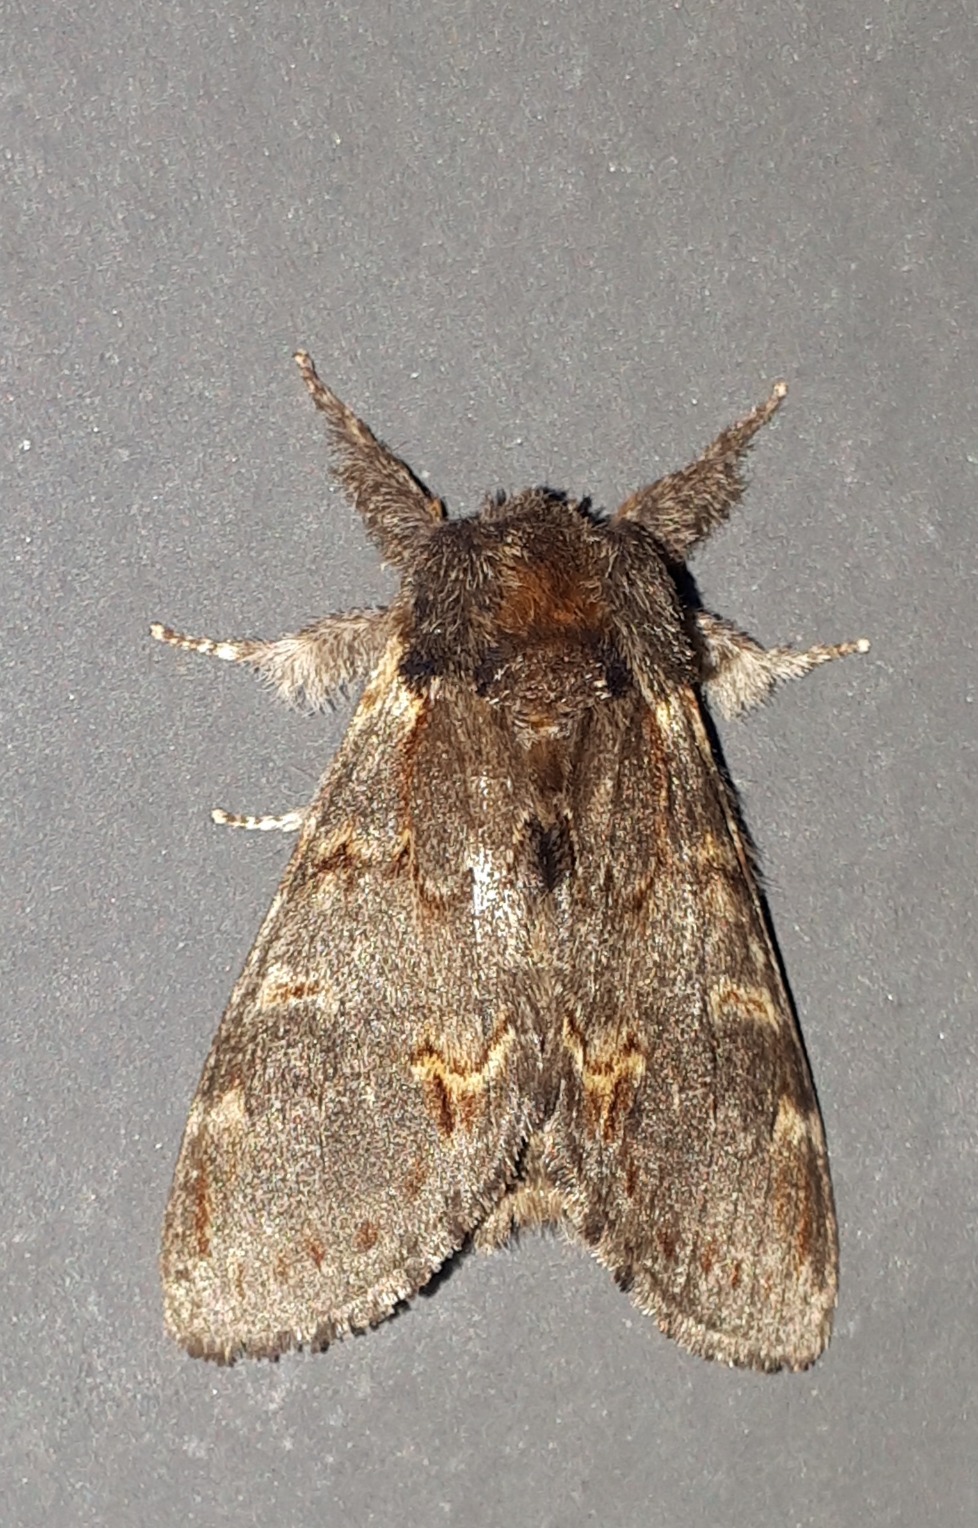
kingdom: Animalia
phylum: Arthropoda
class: Insecta
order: Lepidoptera
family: Notodontidae
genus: Notodonta
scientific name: Notodonta dromedarius
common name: Dromedarspinder
